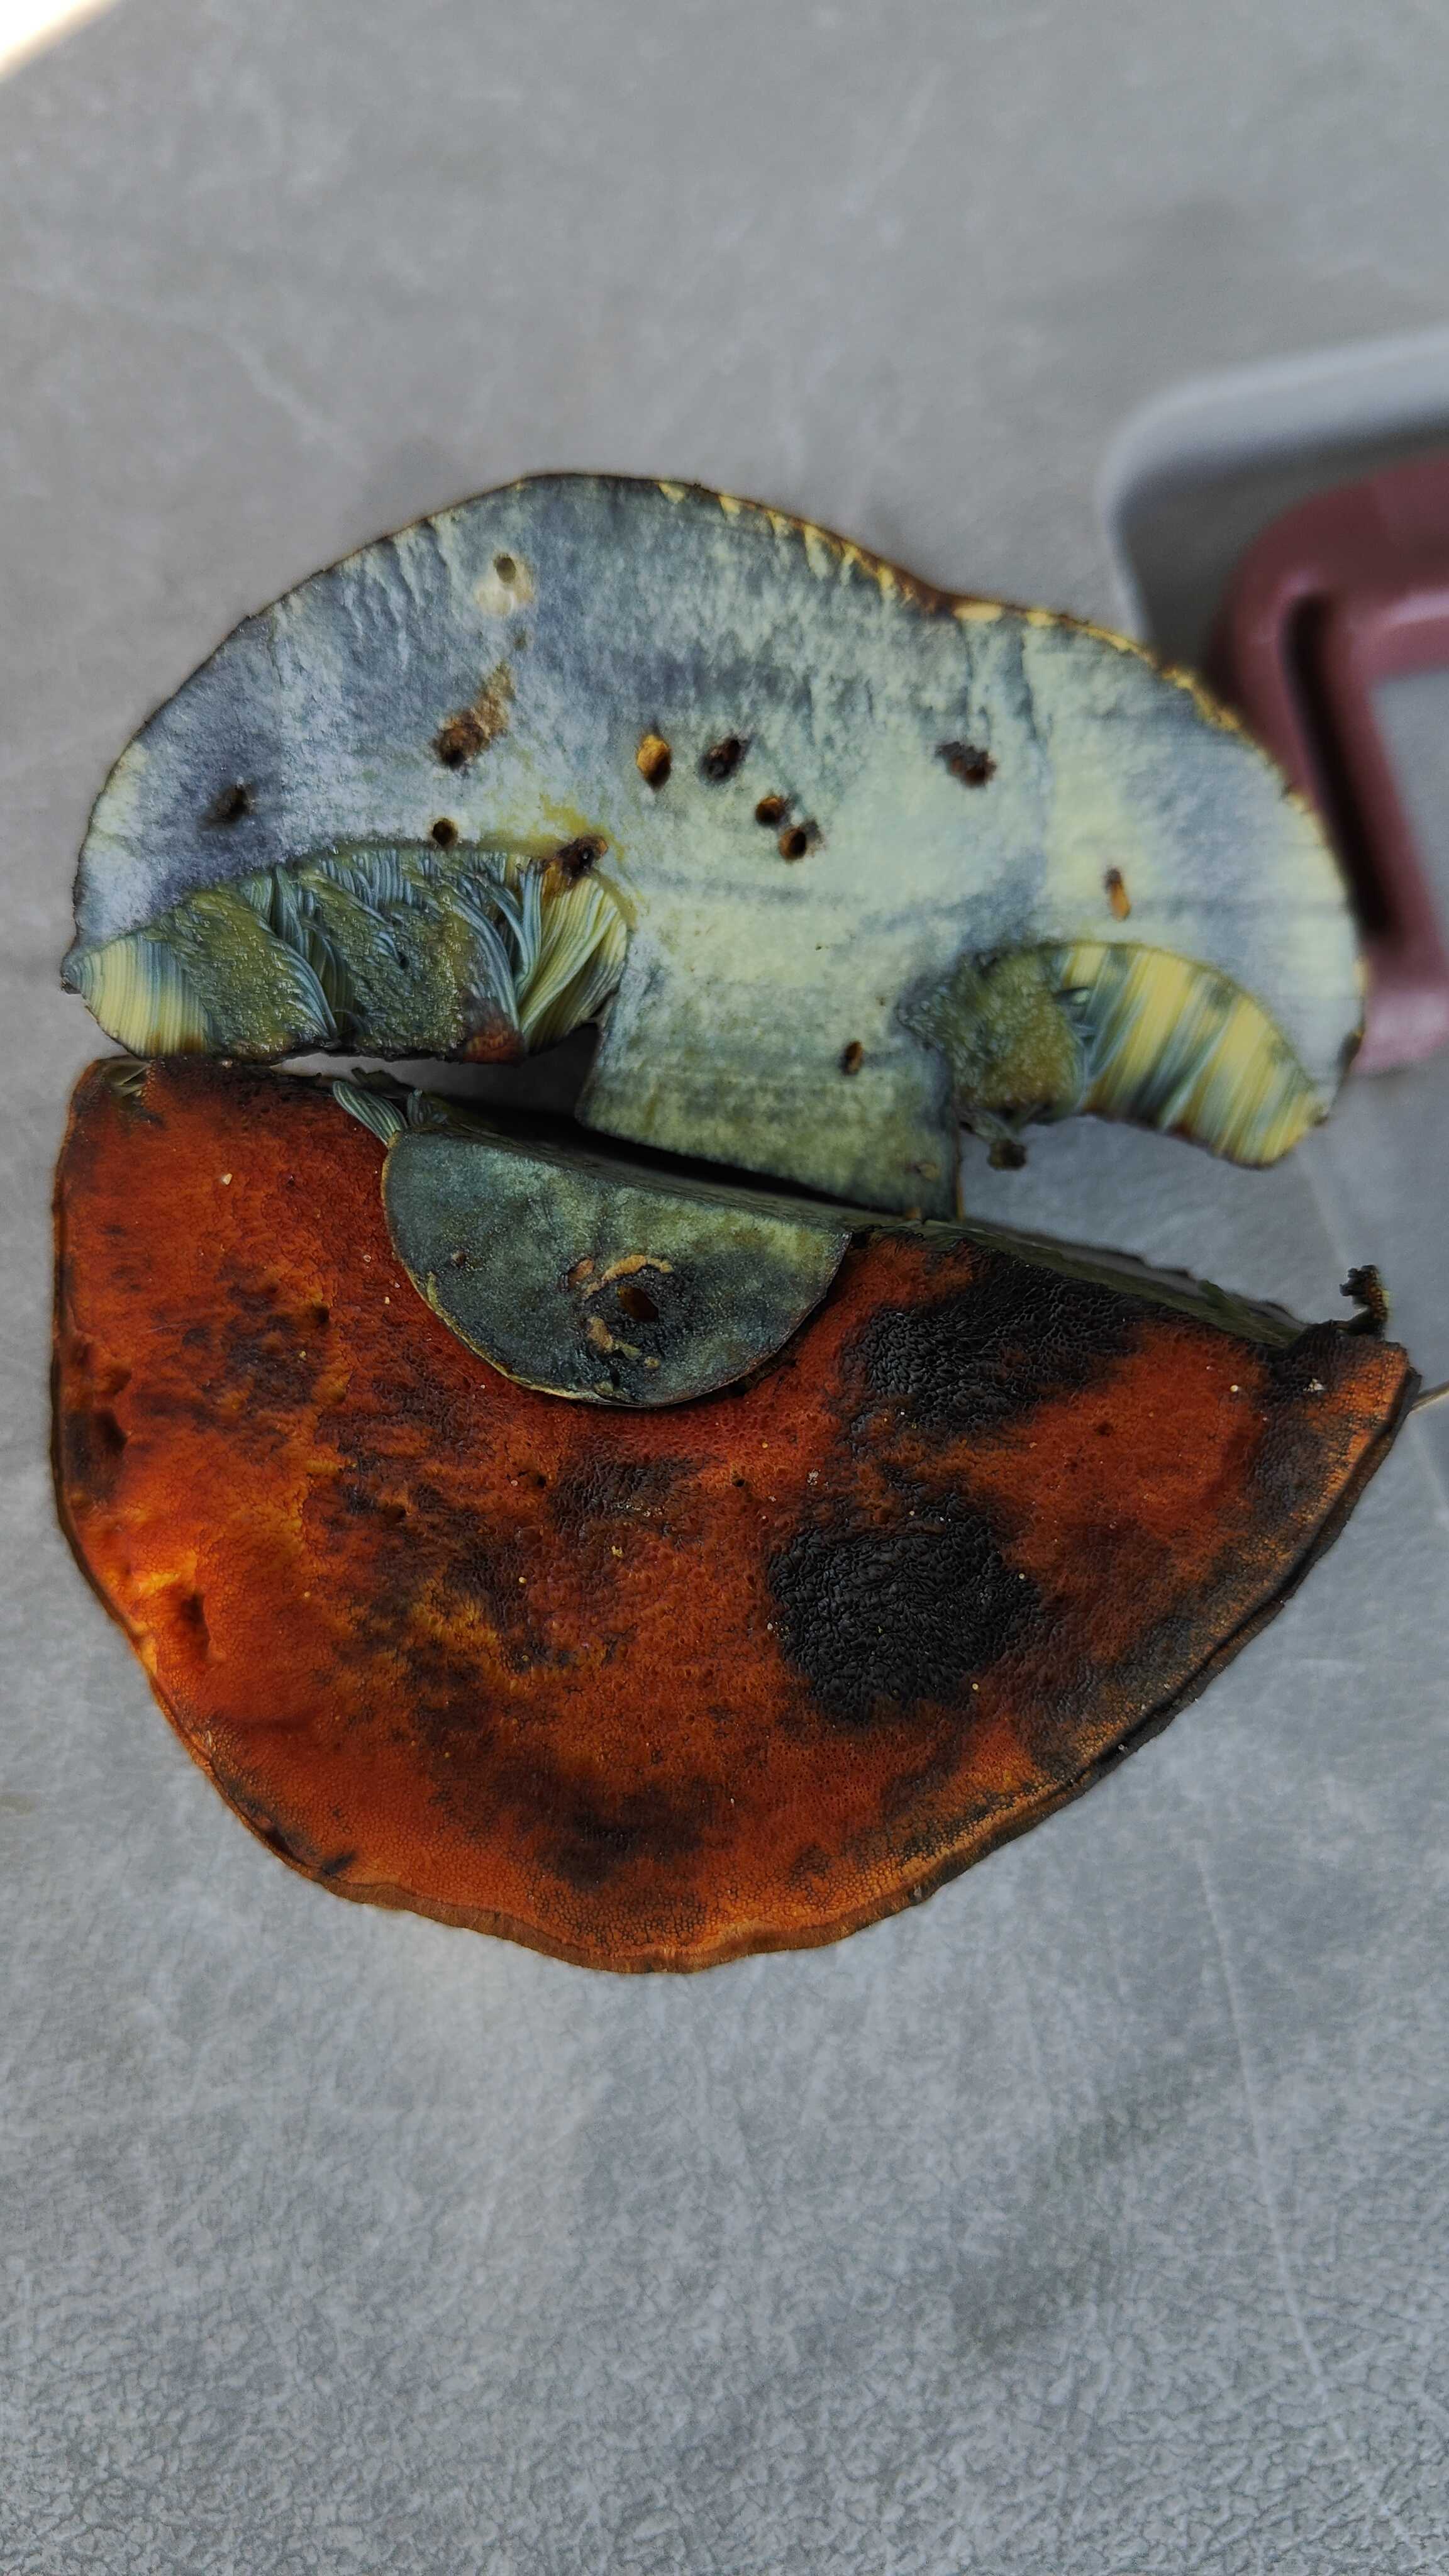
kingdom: Fungi
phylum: Basidiomycota
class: Agaricomycetes
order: Boletales
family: Boletaceae
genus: Neoboletus
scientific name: Neoboletus erythropus
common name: punktstokket indigorørhat
